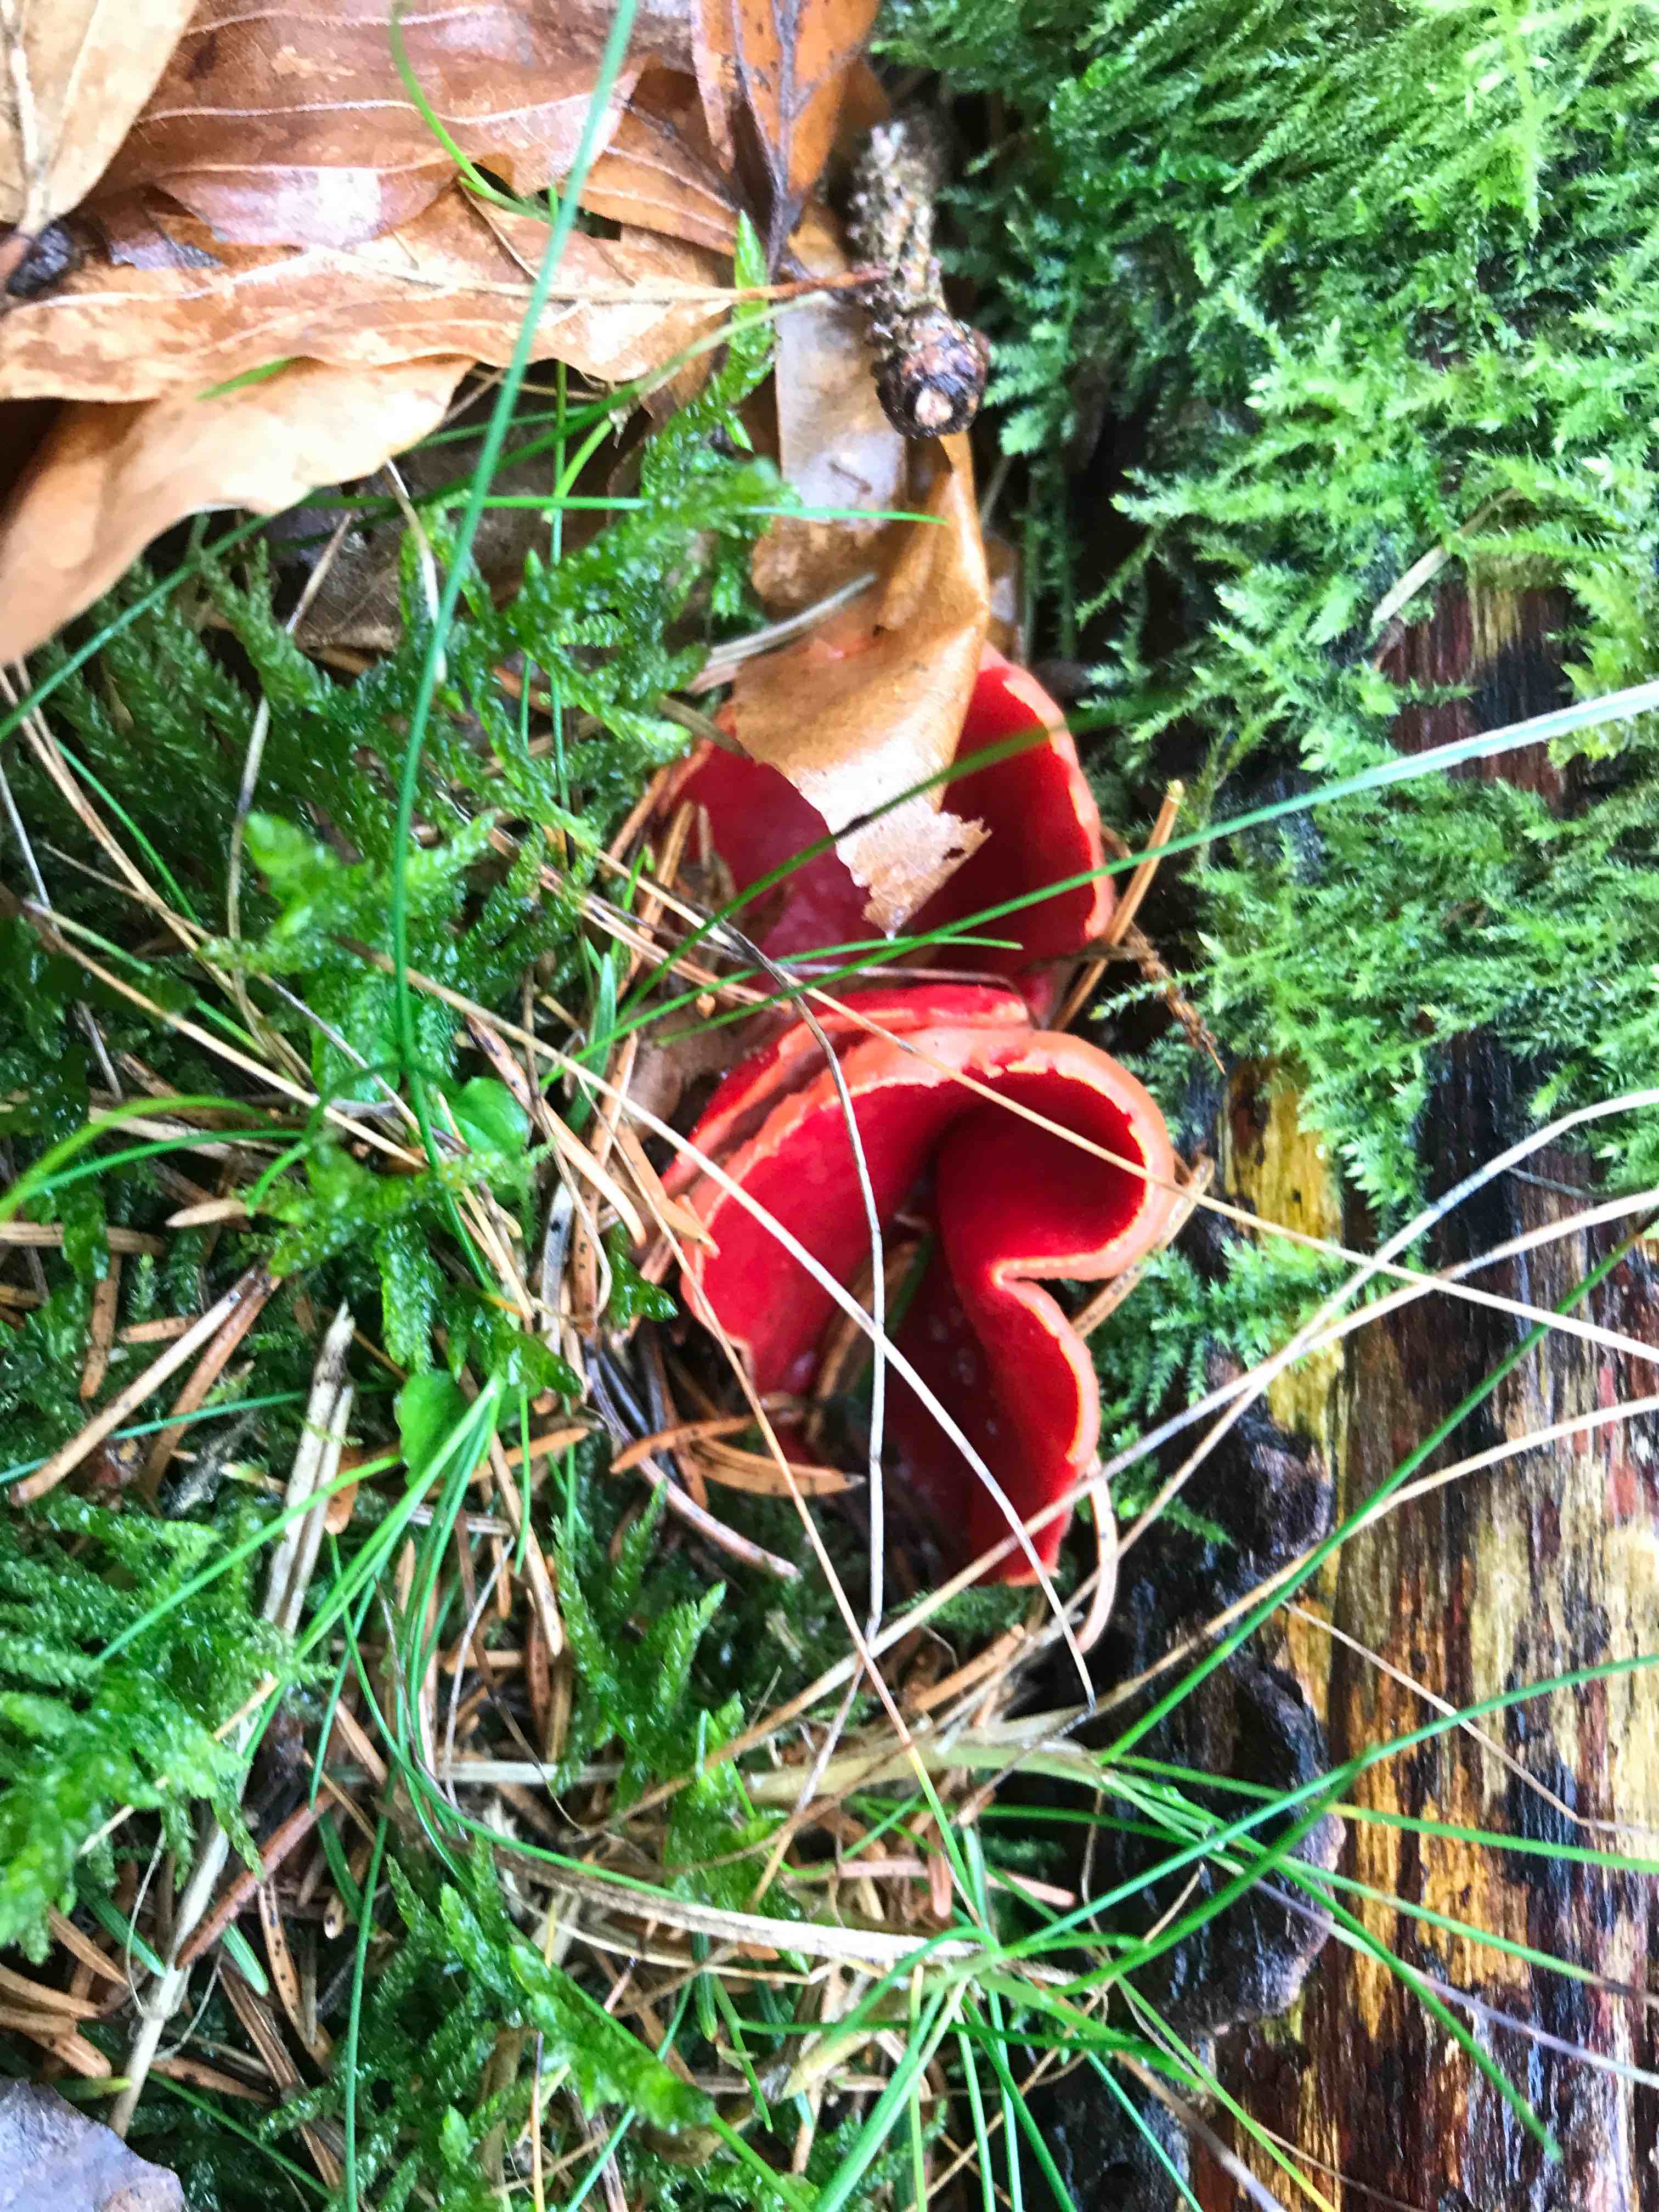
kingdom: Fungi
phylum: Ascomycota
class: Pezizomycetes
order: Pezizales
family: Sarcoscyphaceae
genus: Sarcoscypha
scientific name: Sarcoscypha austriaca
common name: krølhåret pragtbæger
